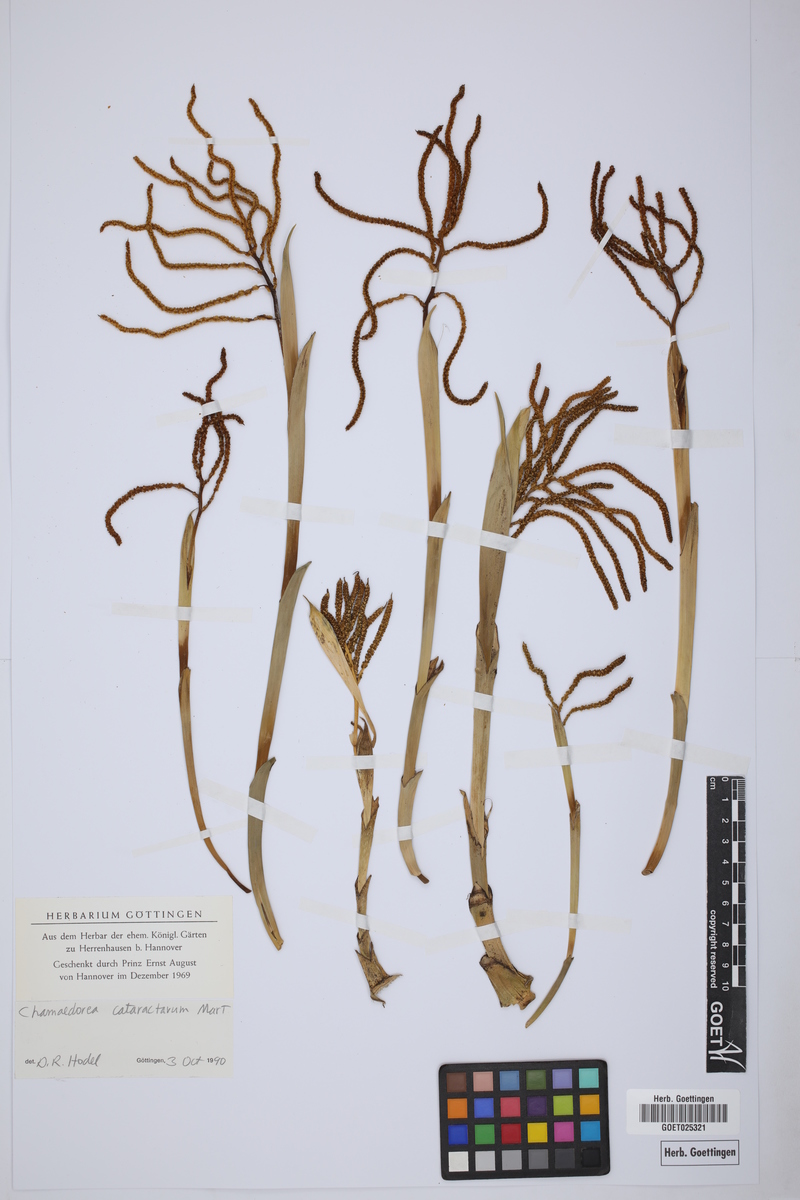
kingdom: Plantae
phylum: Tracheophyta
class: Liliopsida
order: Arecales
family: Arecaceae
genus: Chamaedorea
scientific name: Chamaedorea cataractarum
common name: Cascade palm
